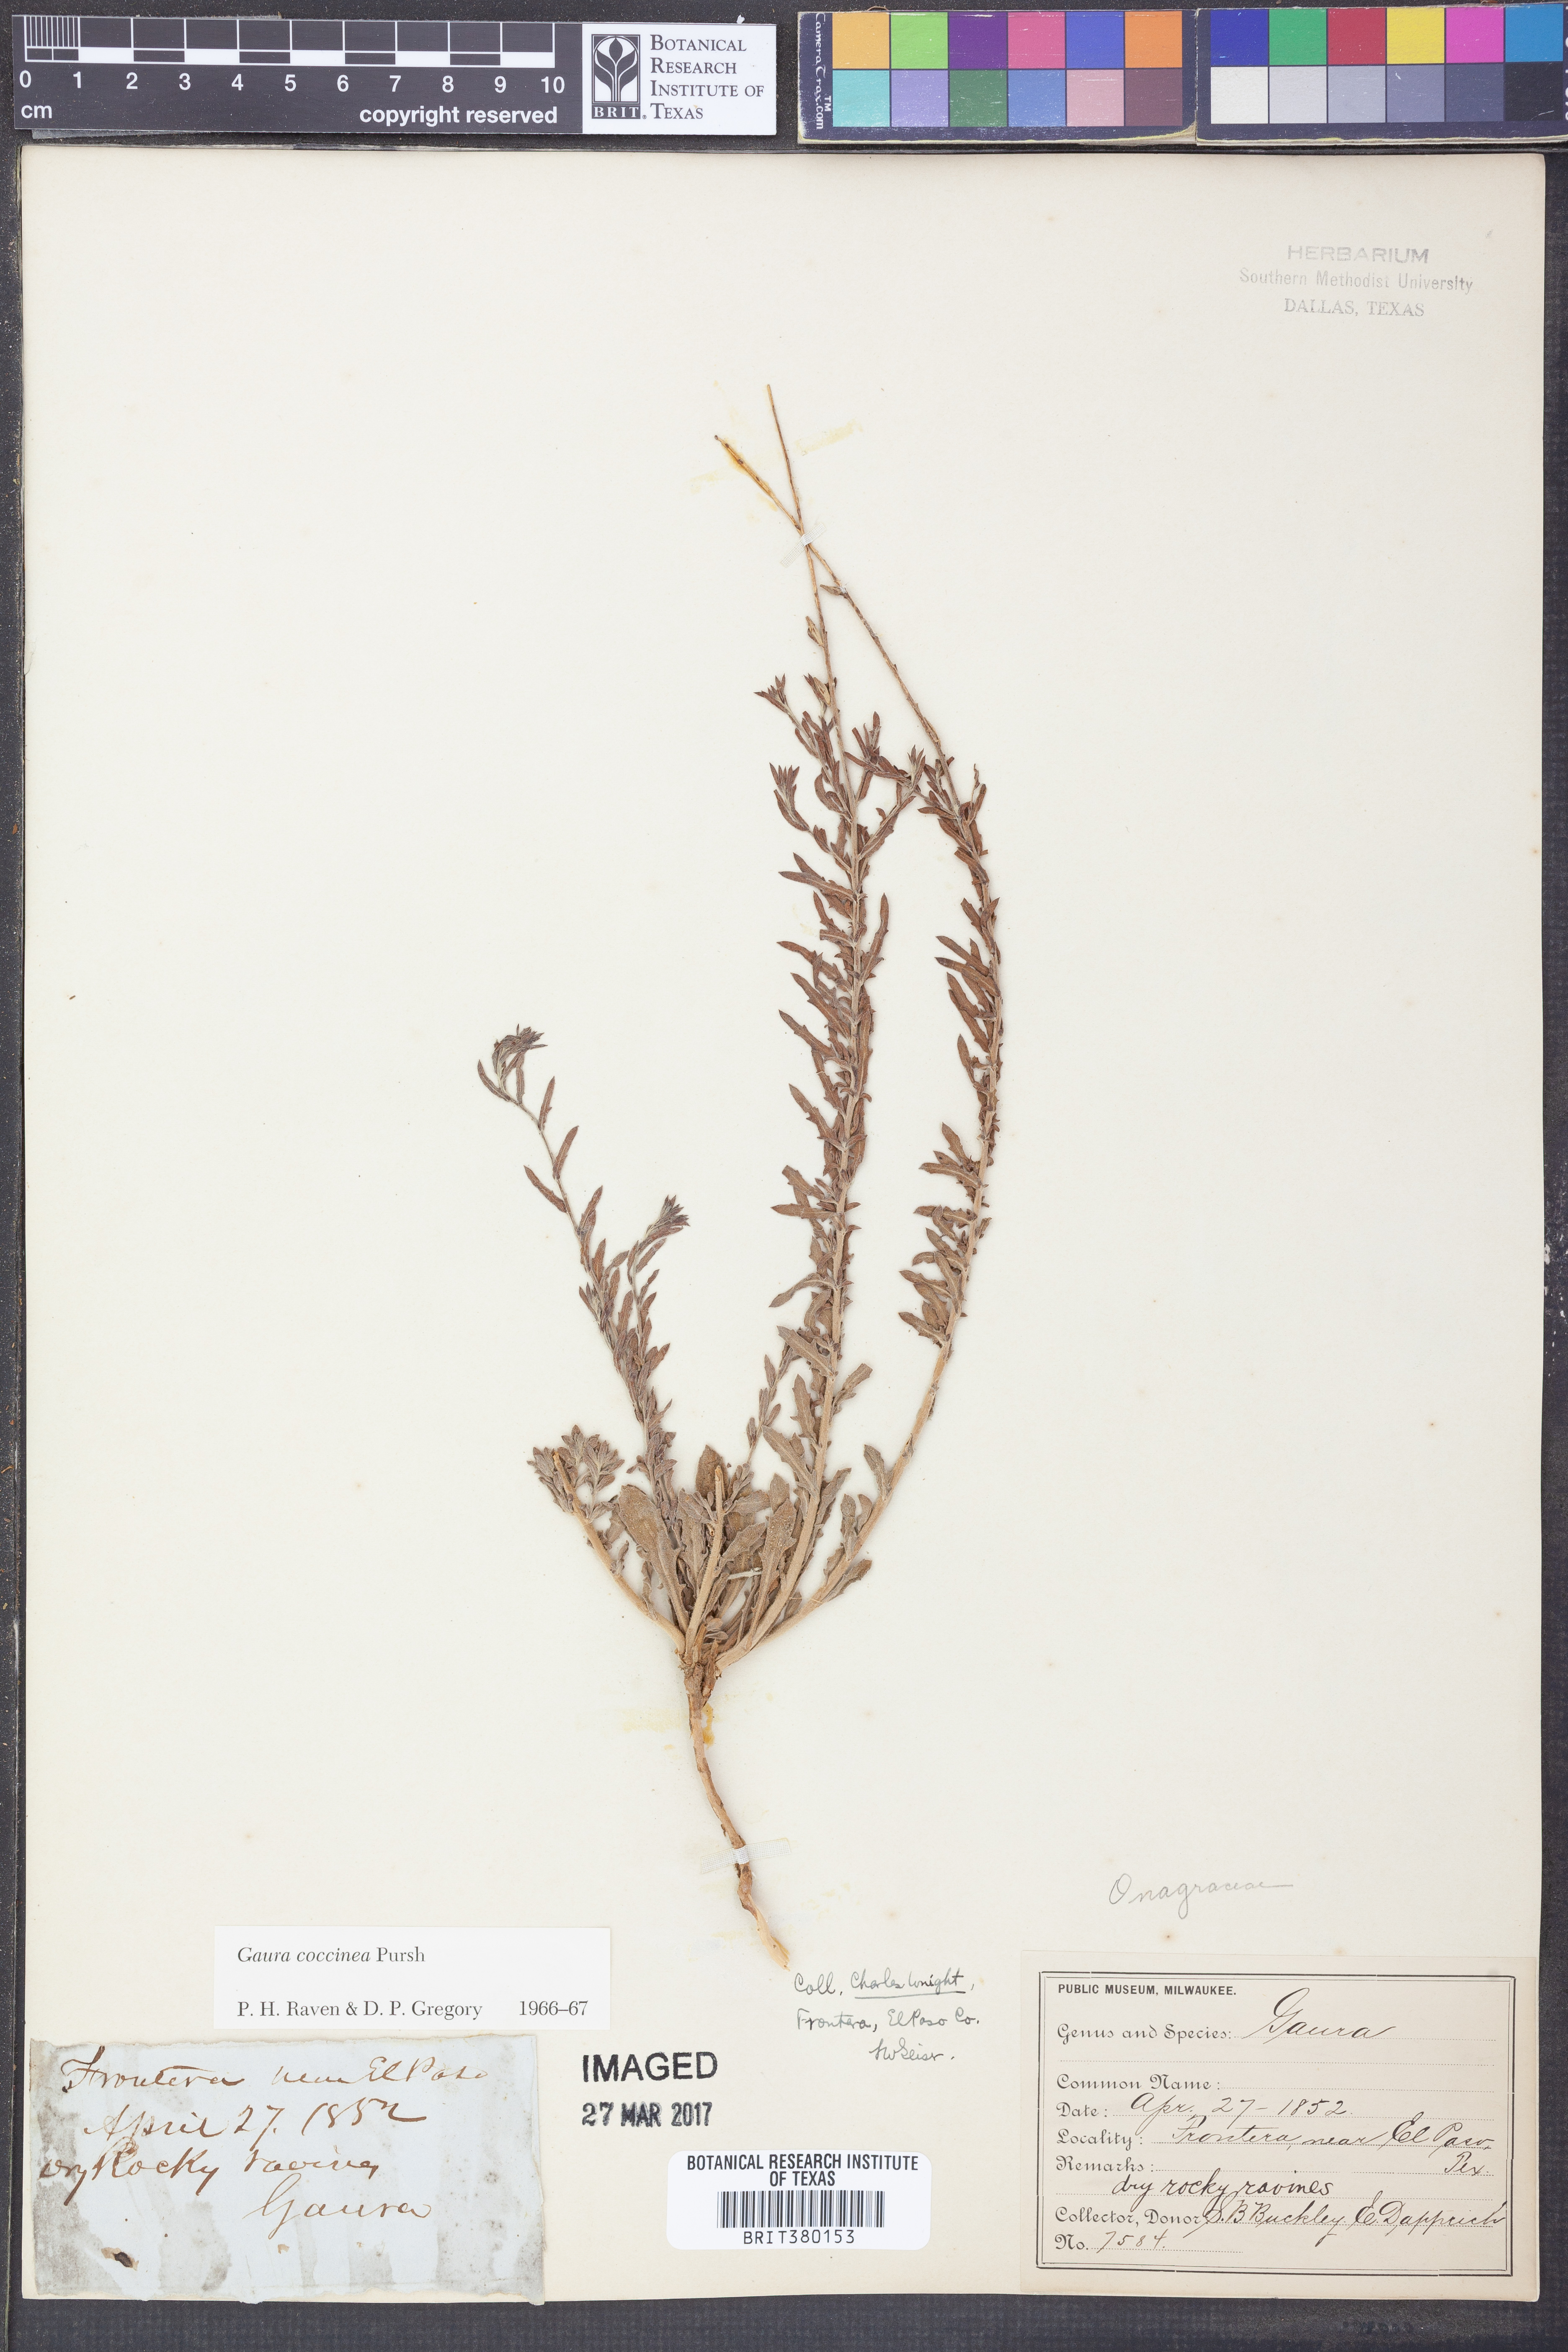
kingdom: Plantae
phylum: Tracheophyta
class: Magnoliopsida
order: Myrtales
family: Onagraceae
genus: Oenothera
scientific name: Oenothera suffrutescens
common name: Scarlet beeblossom
